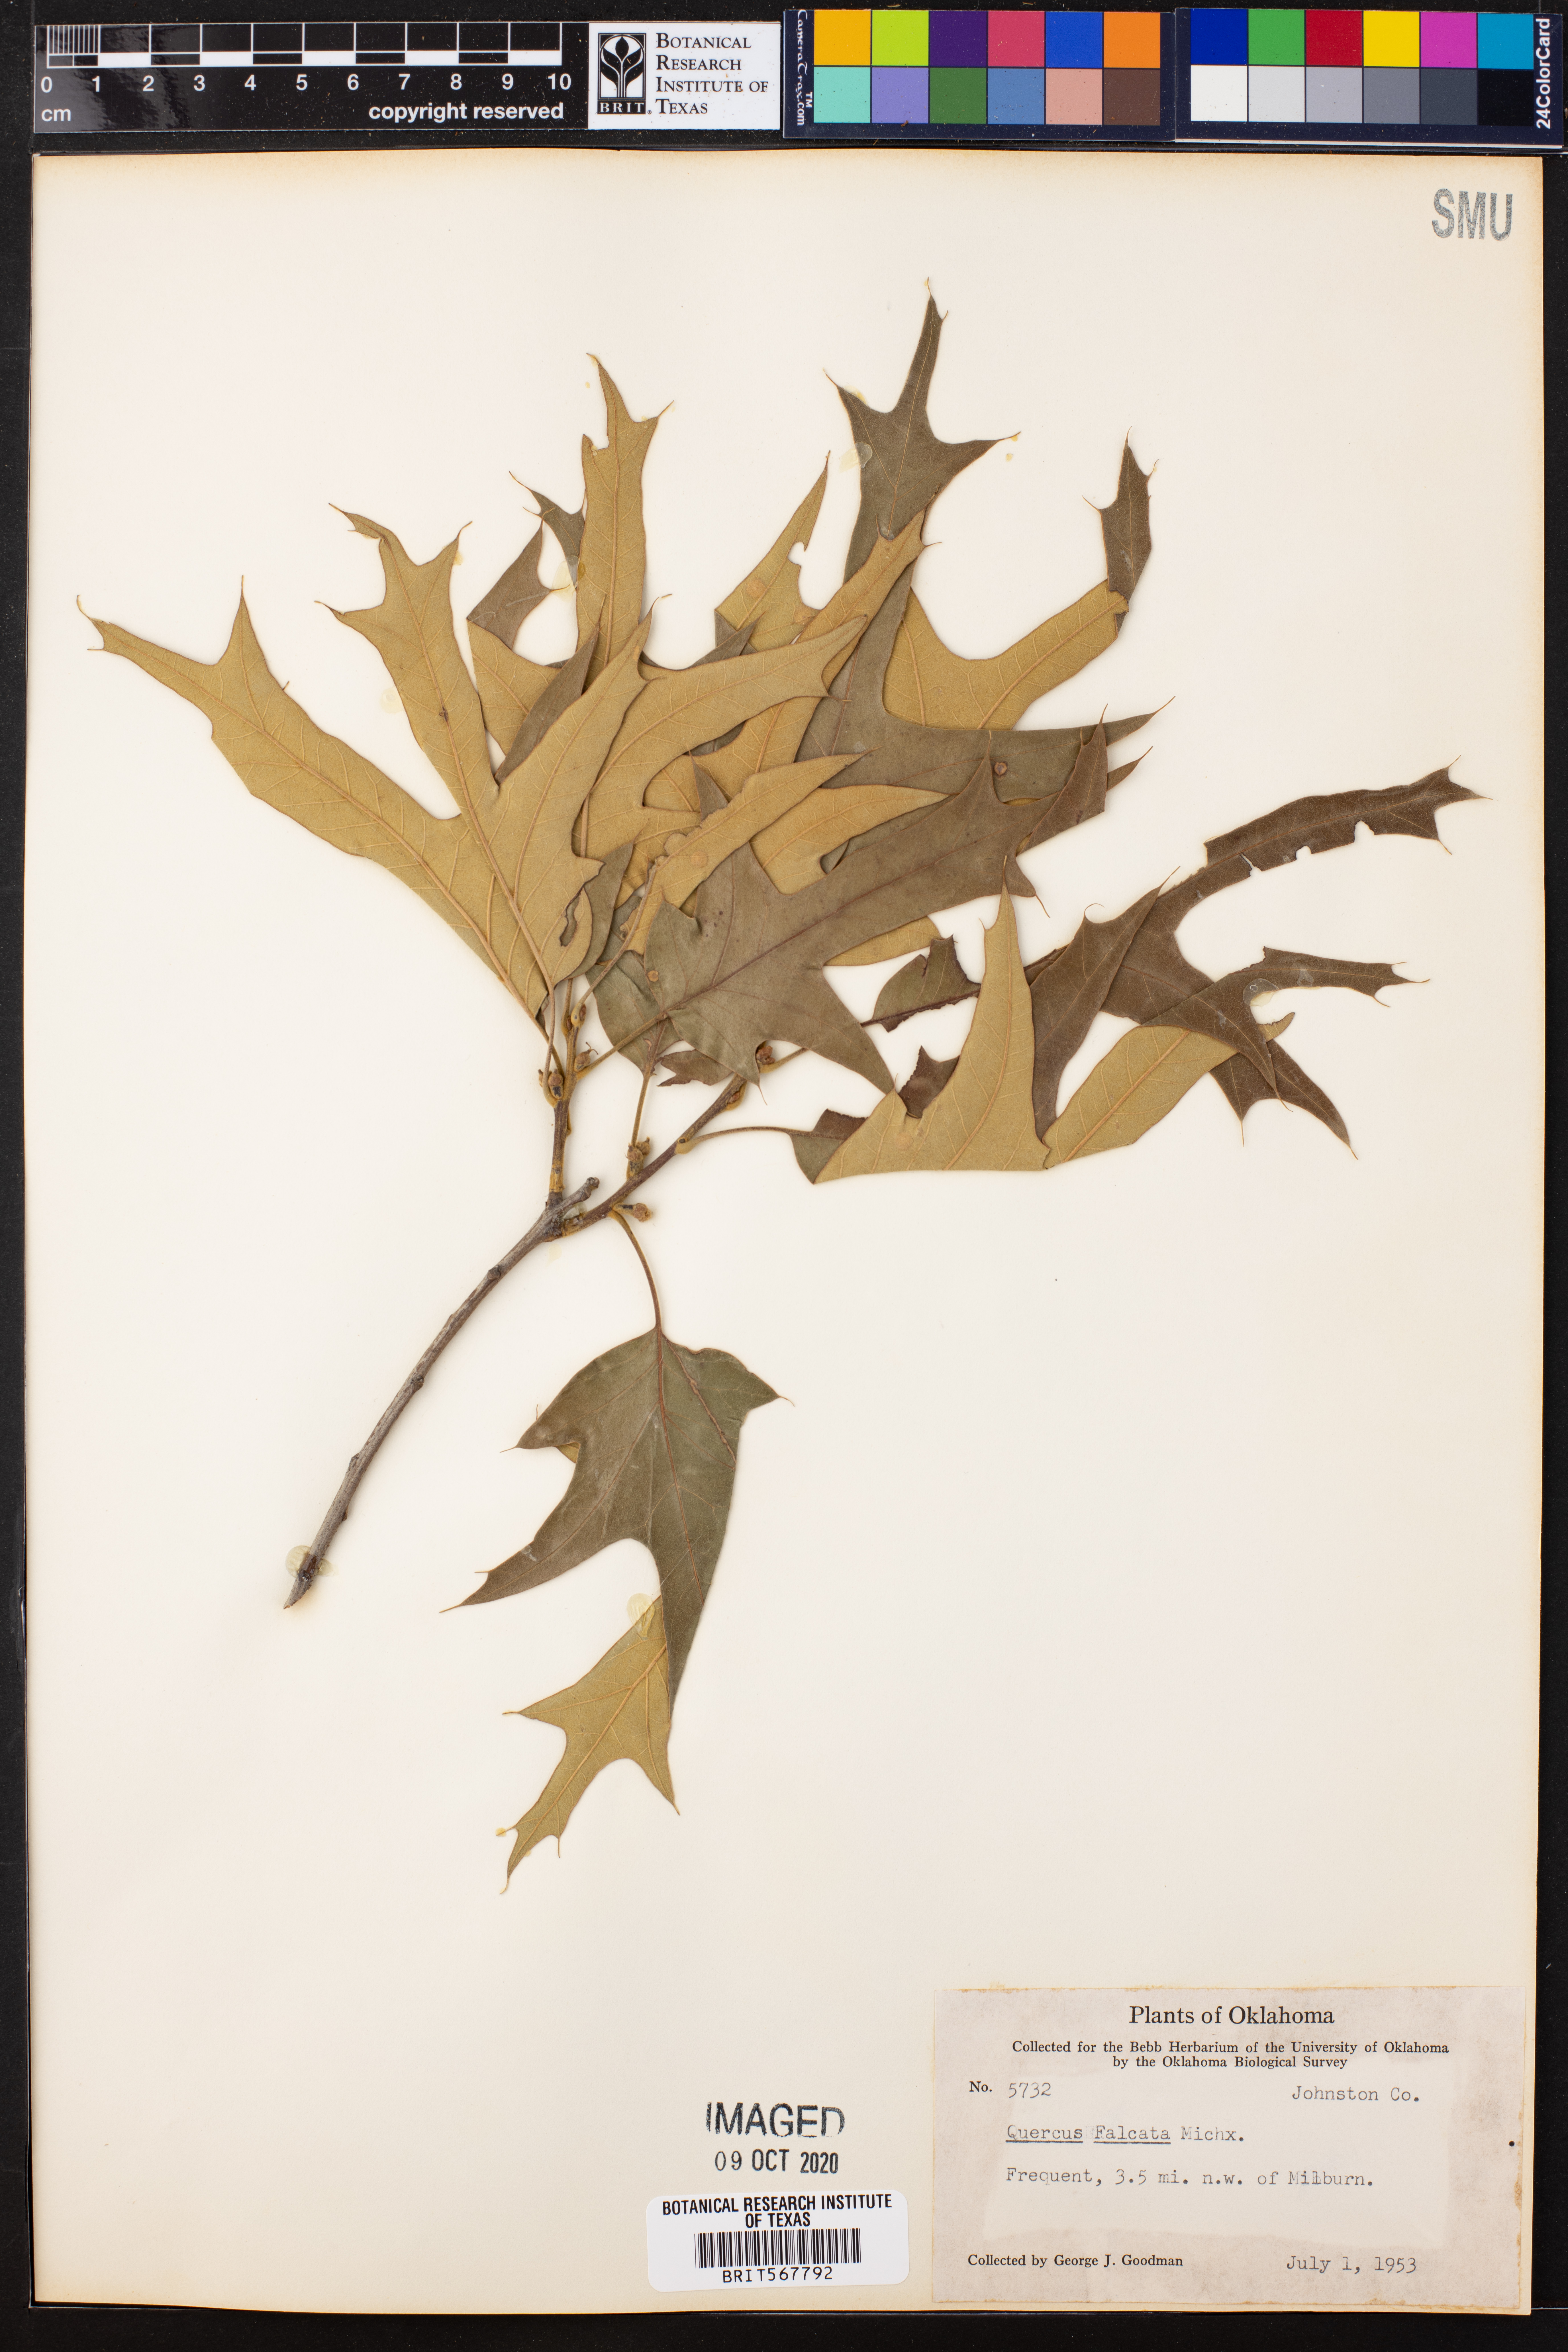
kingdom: Plantae
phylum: Tracheophyta
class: Magnoliopsida
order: Fagales
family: Fagaceae
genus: Quercus
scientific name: Quercus falcata
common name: Southern red oak
